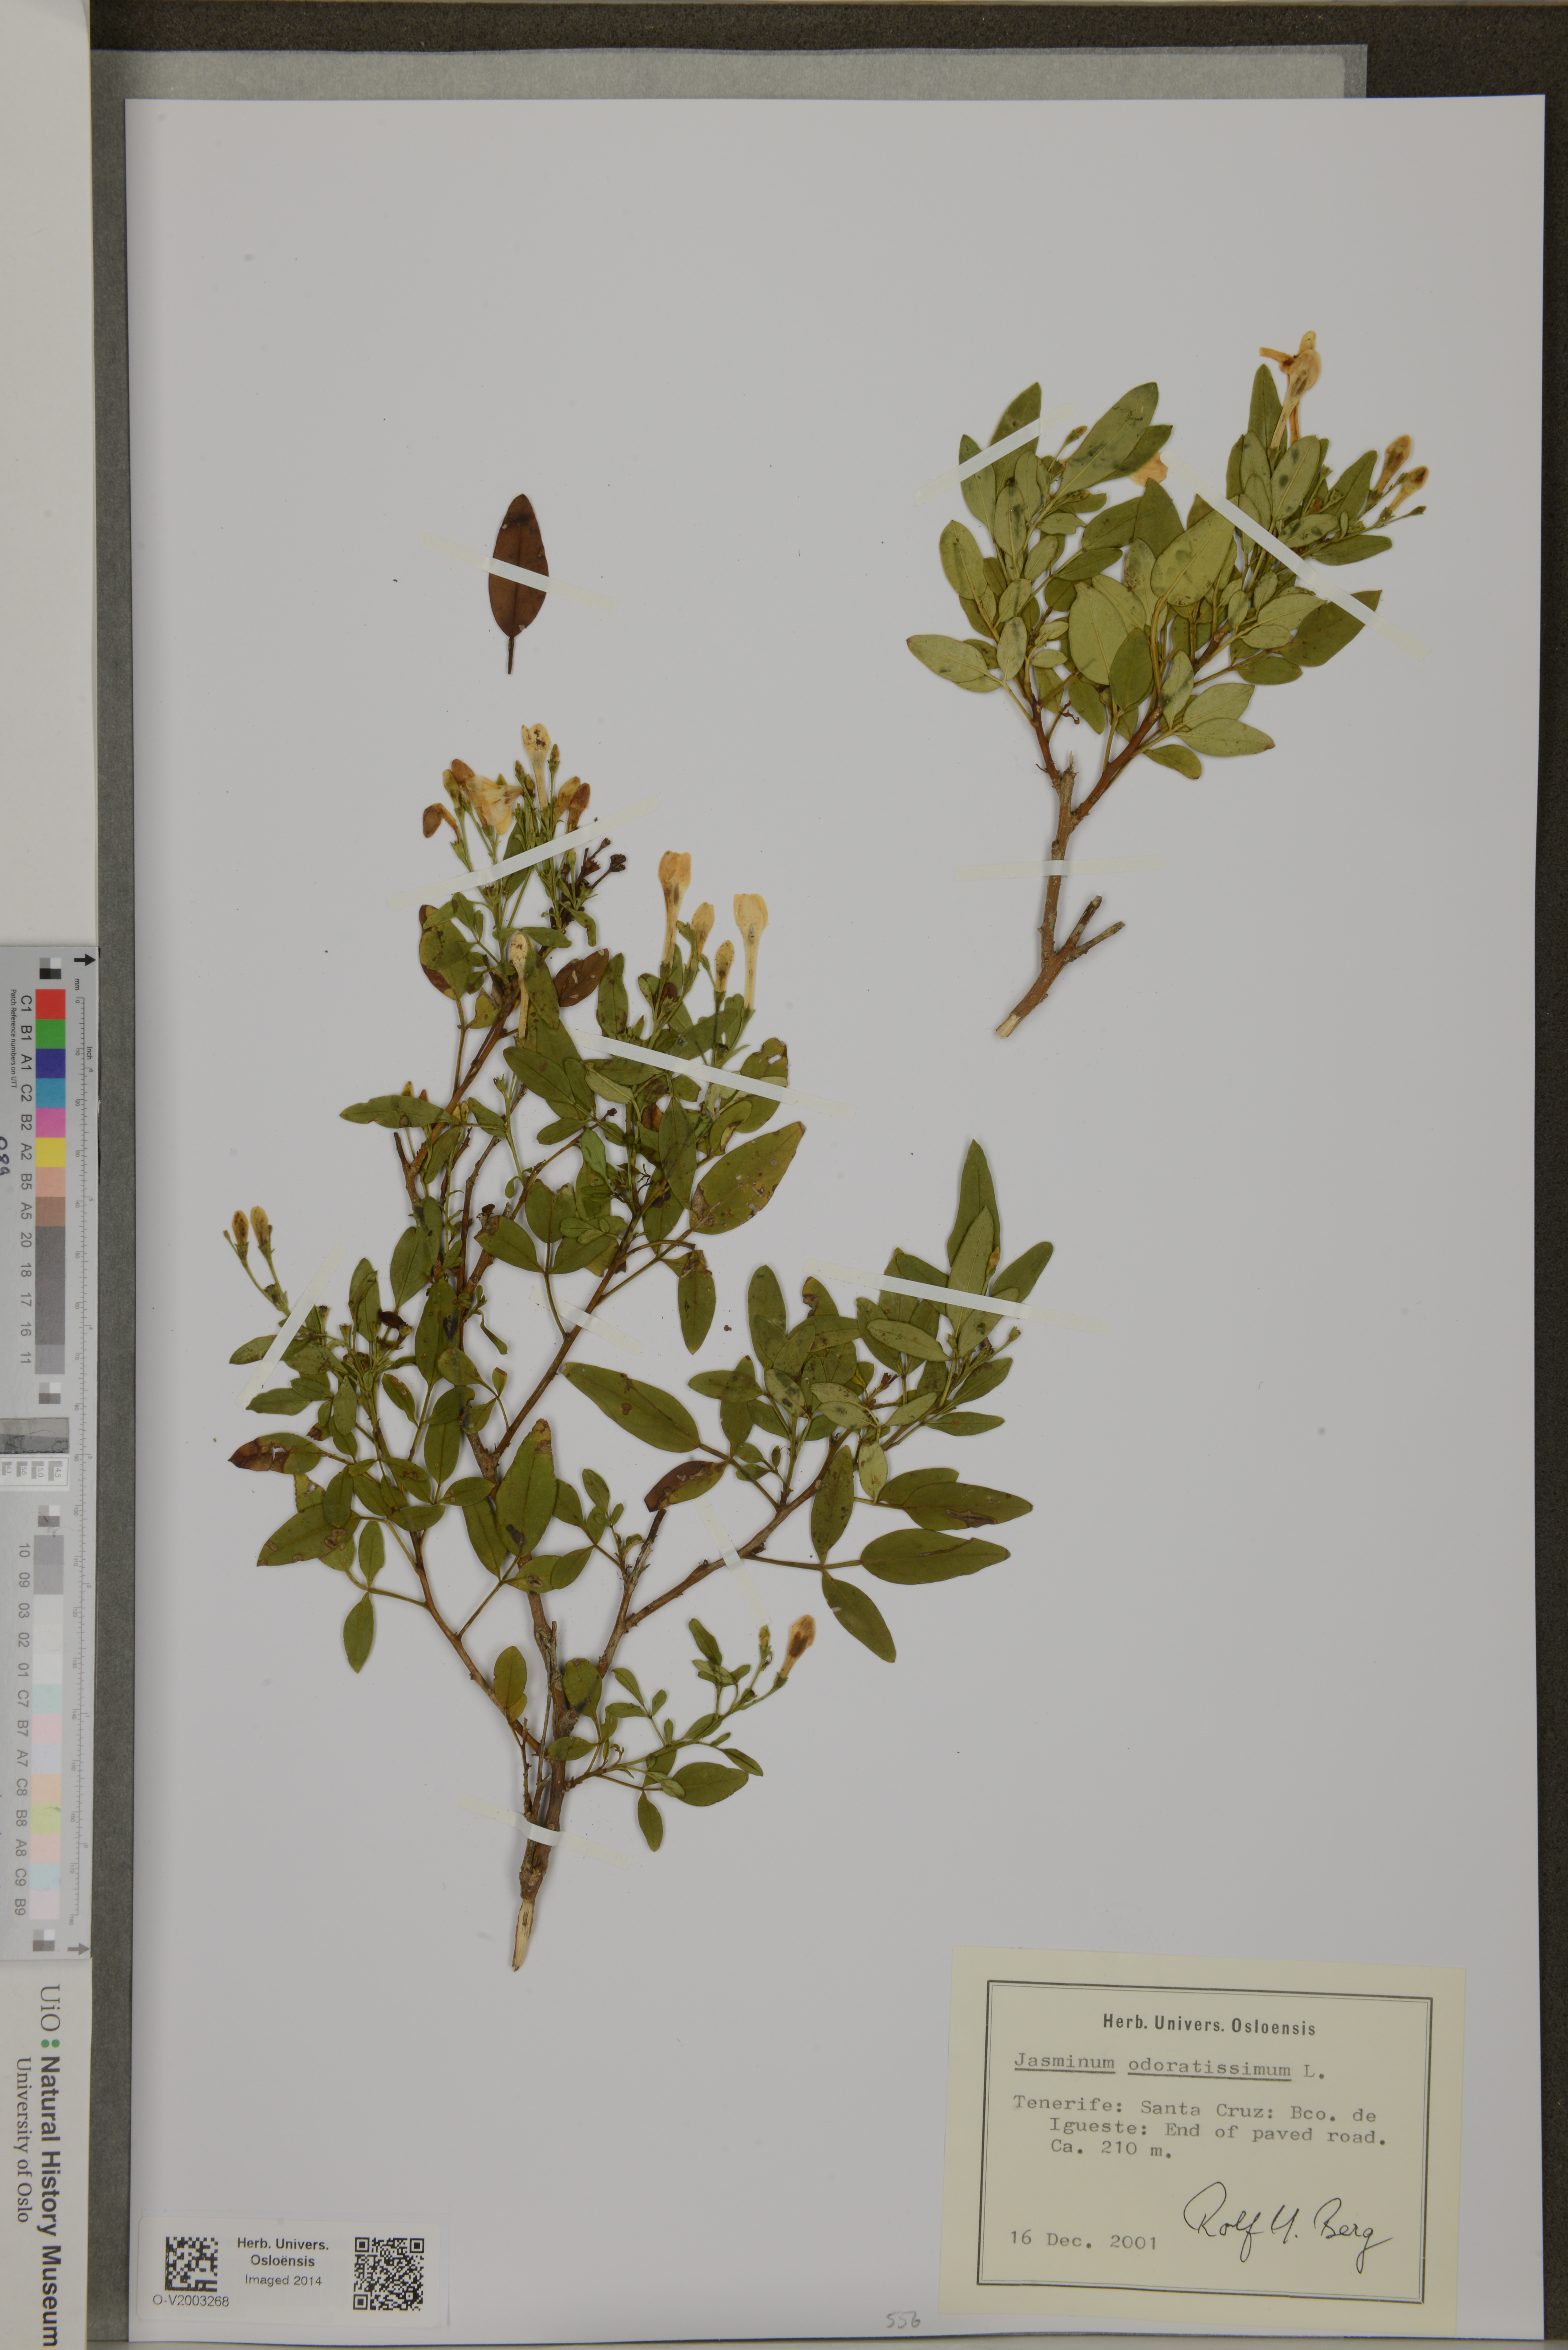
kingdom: Plantae
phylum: Tracheophyta
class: Magnoliopsida
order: Lamiales
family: Oleaceae
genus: Chrysojasminum
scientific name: Chrysojasminum odoratissimum
